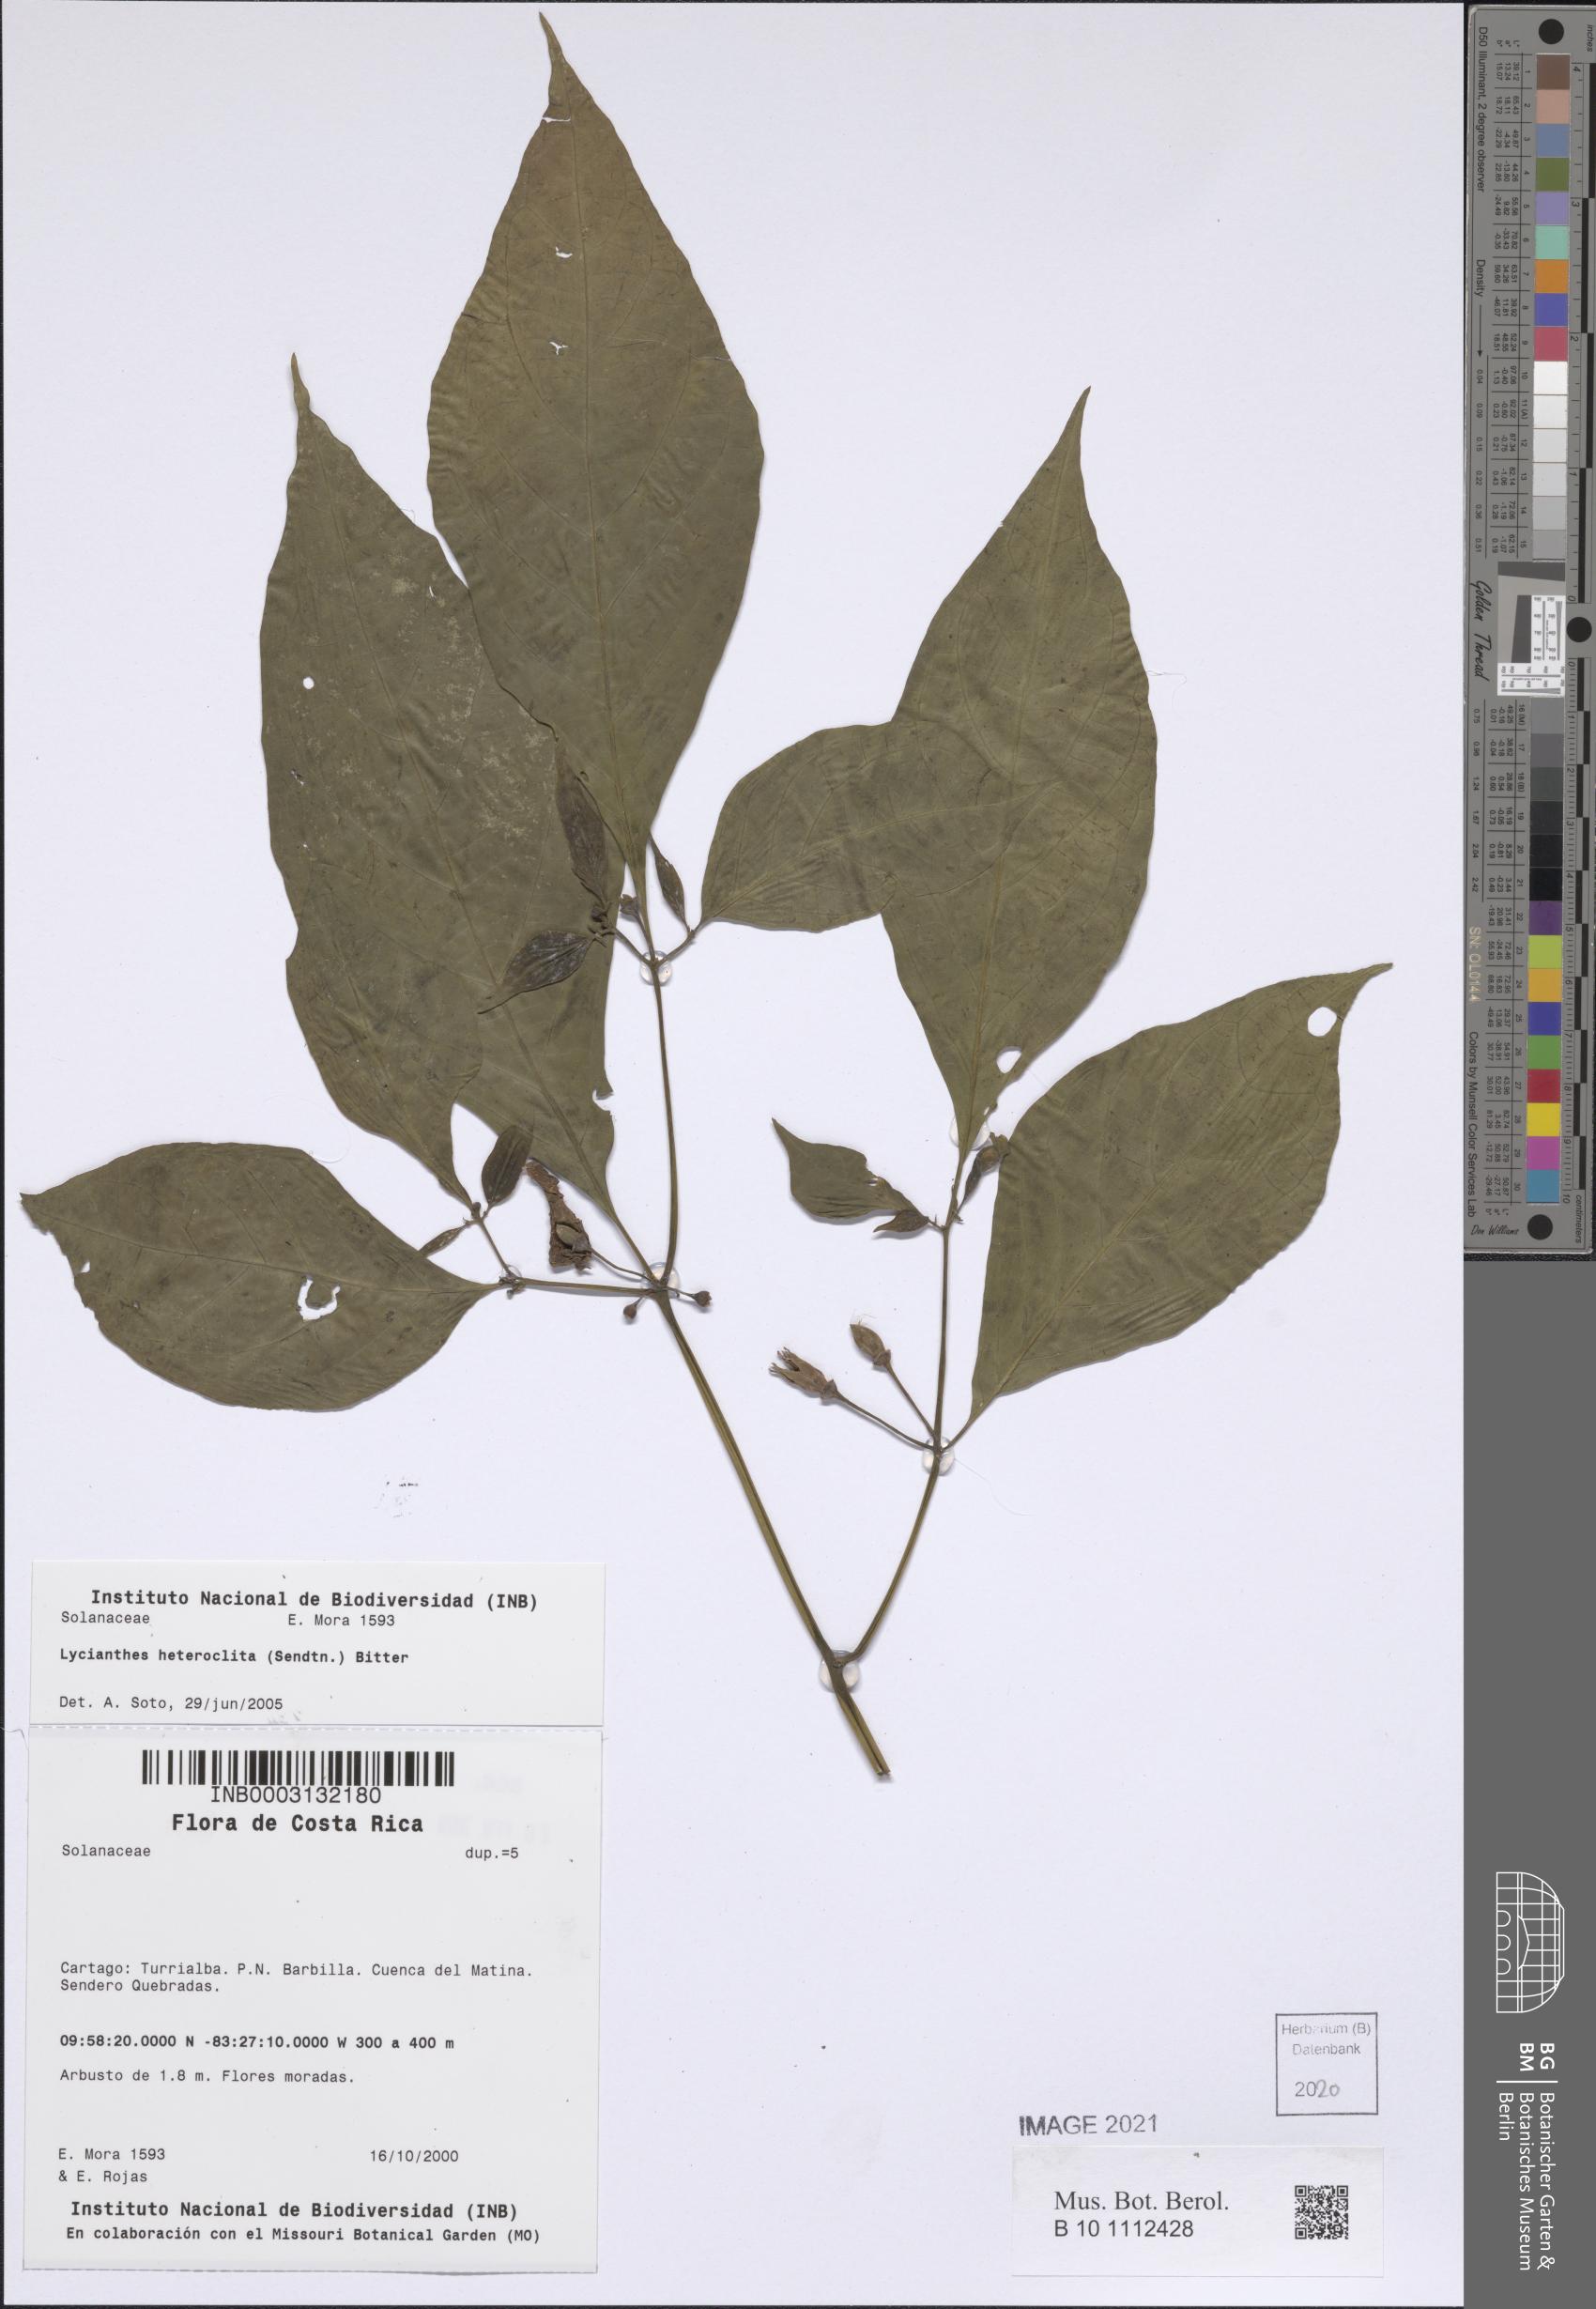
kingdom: Plantae
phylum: Tracheophyta
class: Magnoliopsida
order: Solanales
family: Solanaceae
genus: Lycianthes
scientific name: Lycianthes heteroclita
